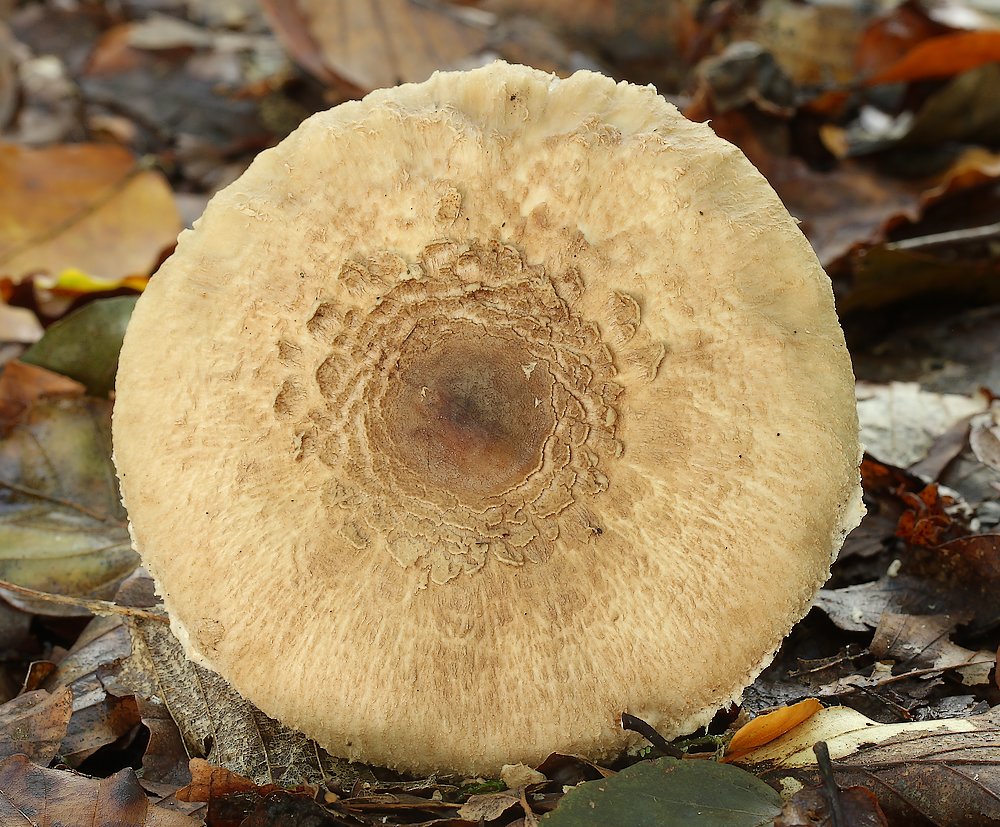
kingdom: Fungi
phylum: Basidiomycota
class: Agaricomycetes
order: Agaricales
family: Agaricaceae
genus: Macrolepiota
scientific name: Macrolepiota mastoidea
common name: puklet kæmpeparasolhat
